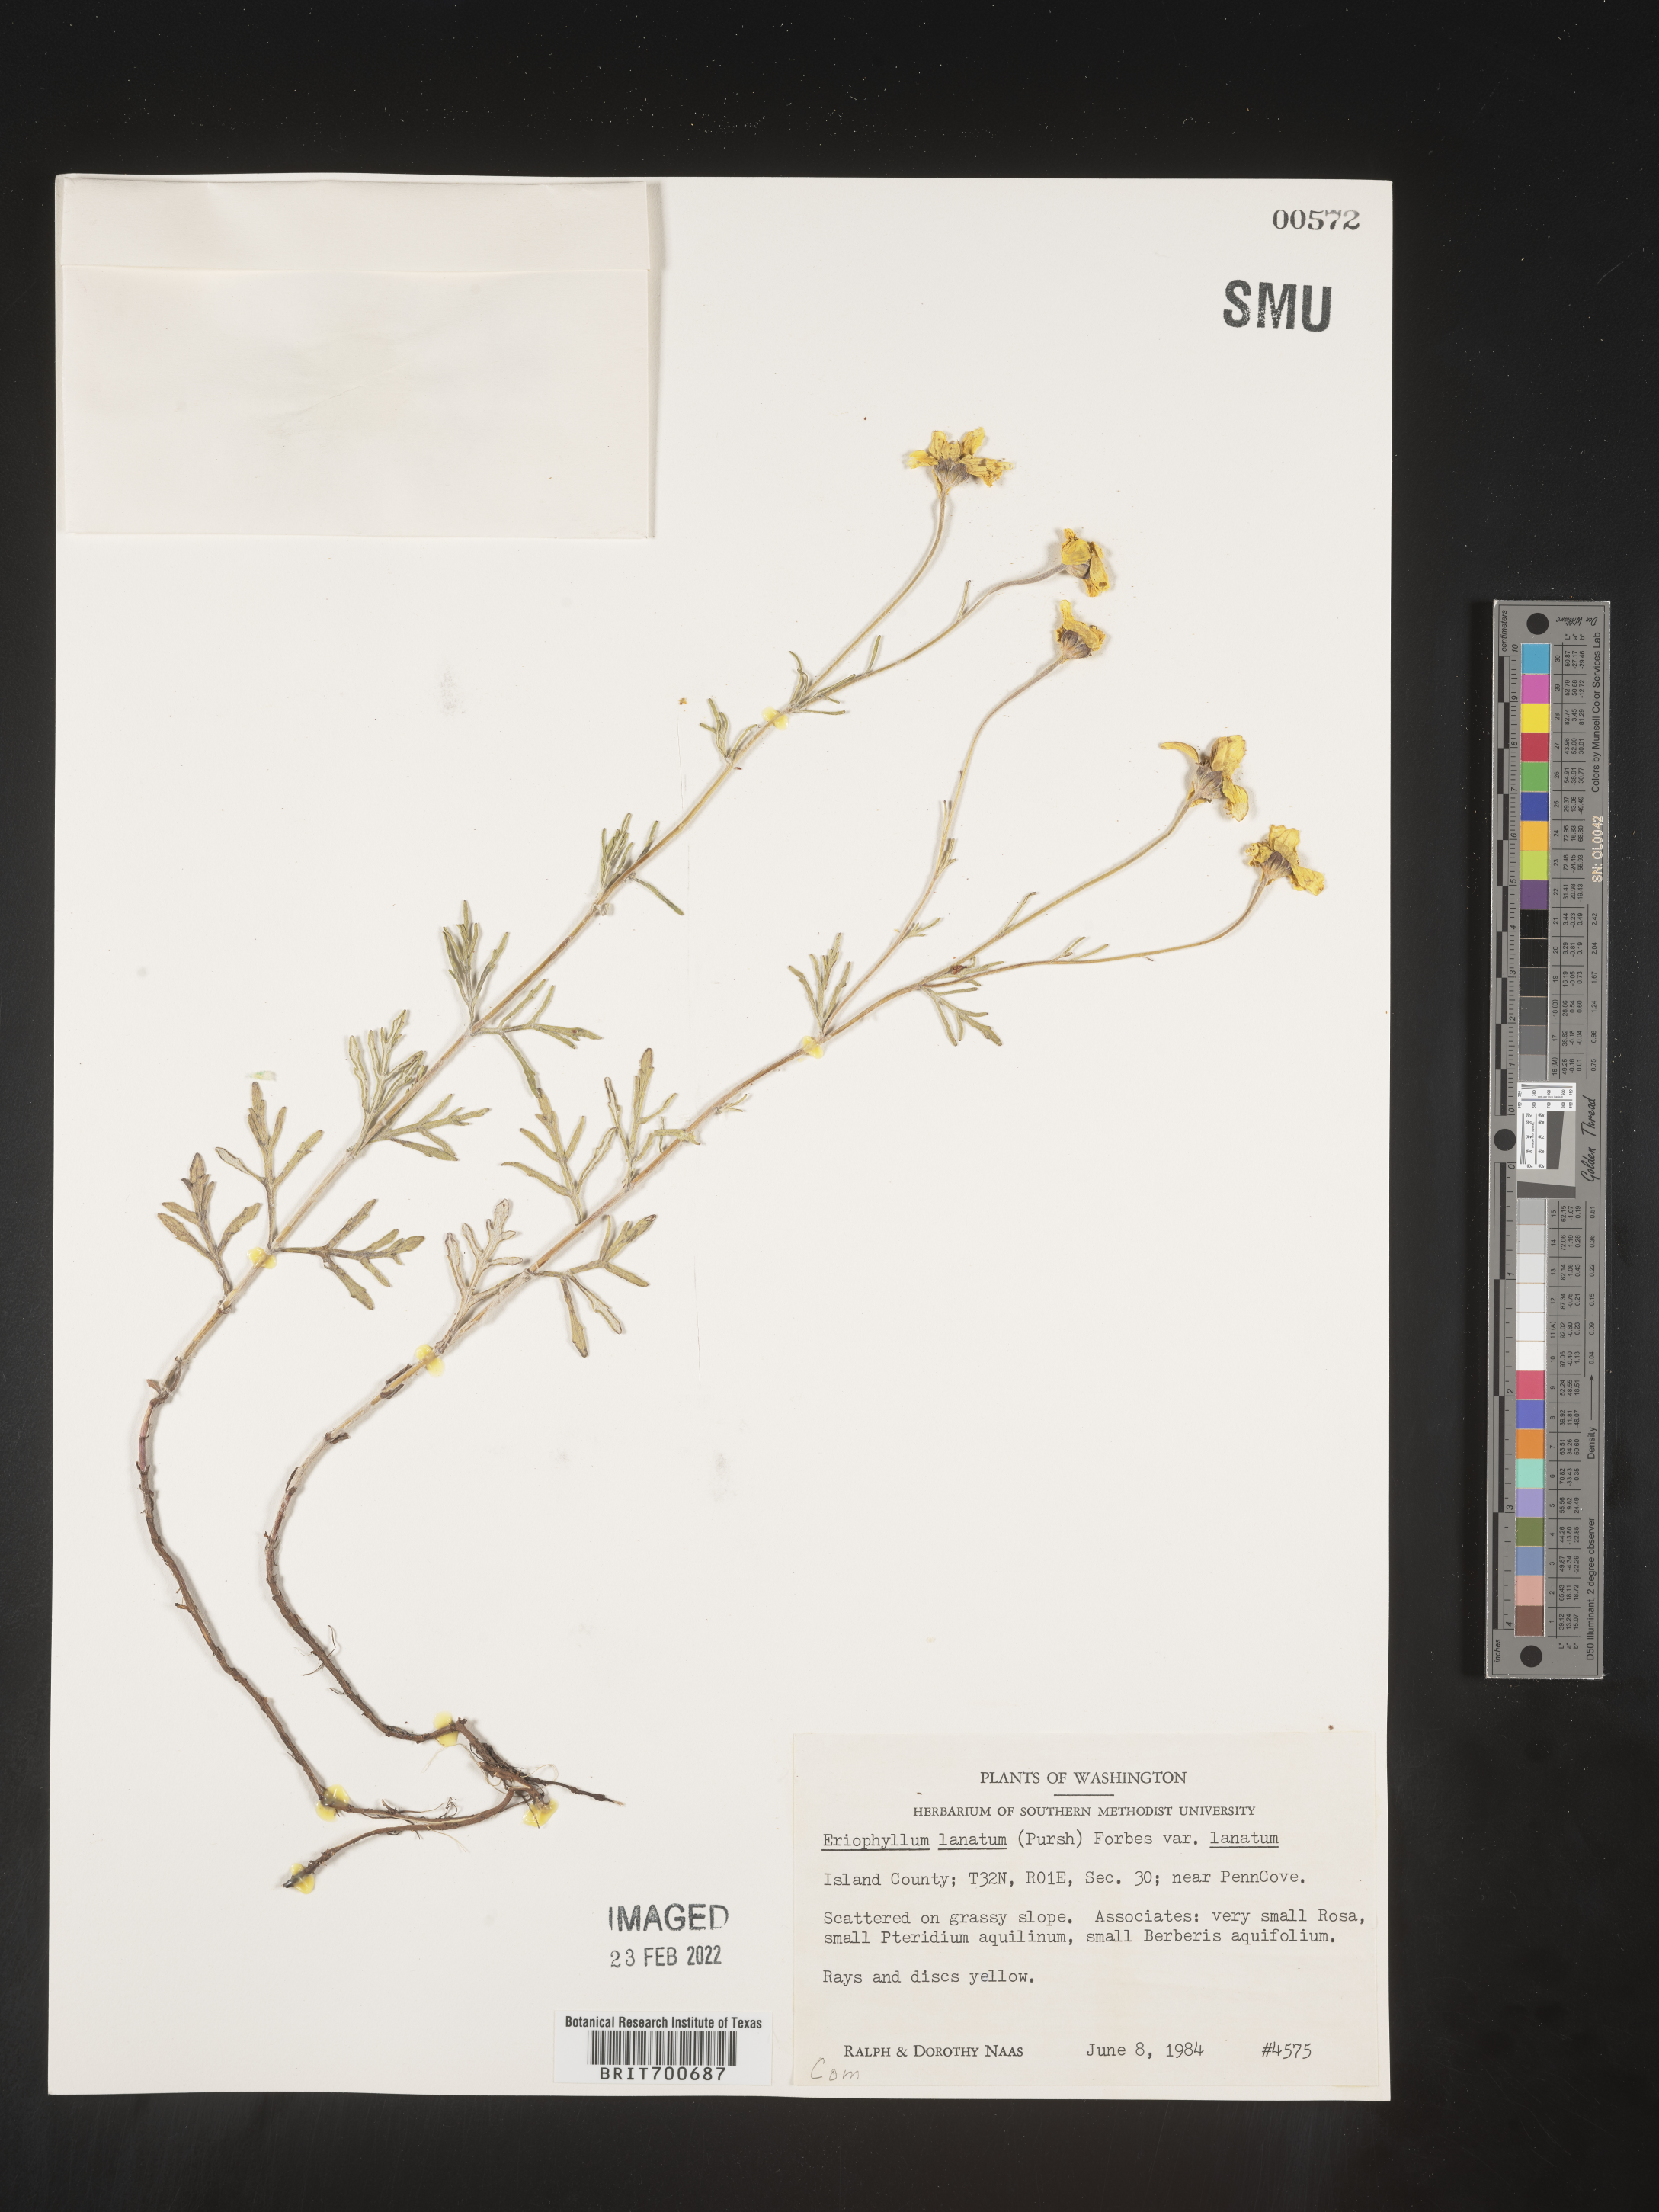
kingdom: Plantae
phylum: Tracheophyta
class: Magnoliopsida
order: Asterales
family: Asteraceae
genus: Eriophyllum
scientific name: Eriophyllum lanatum
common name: Common woolly-sunflower
